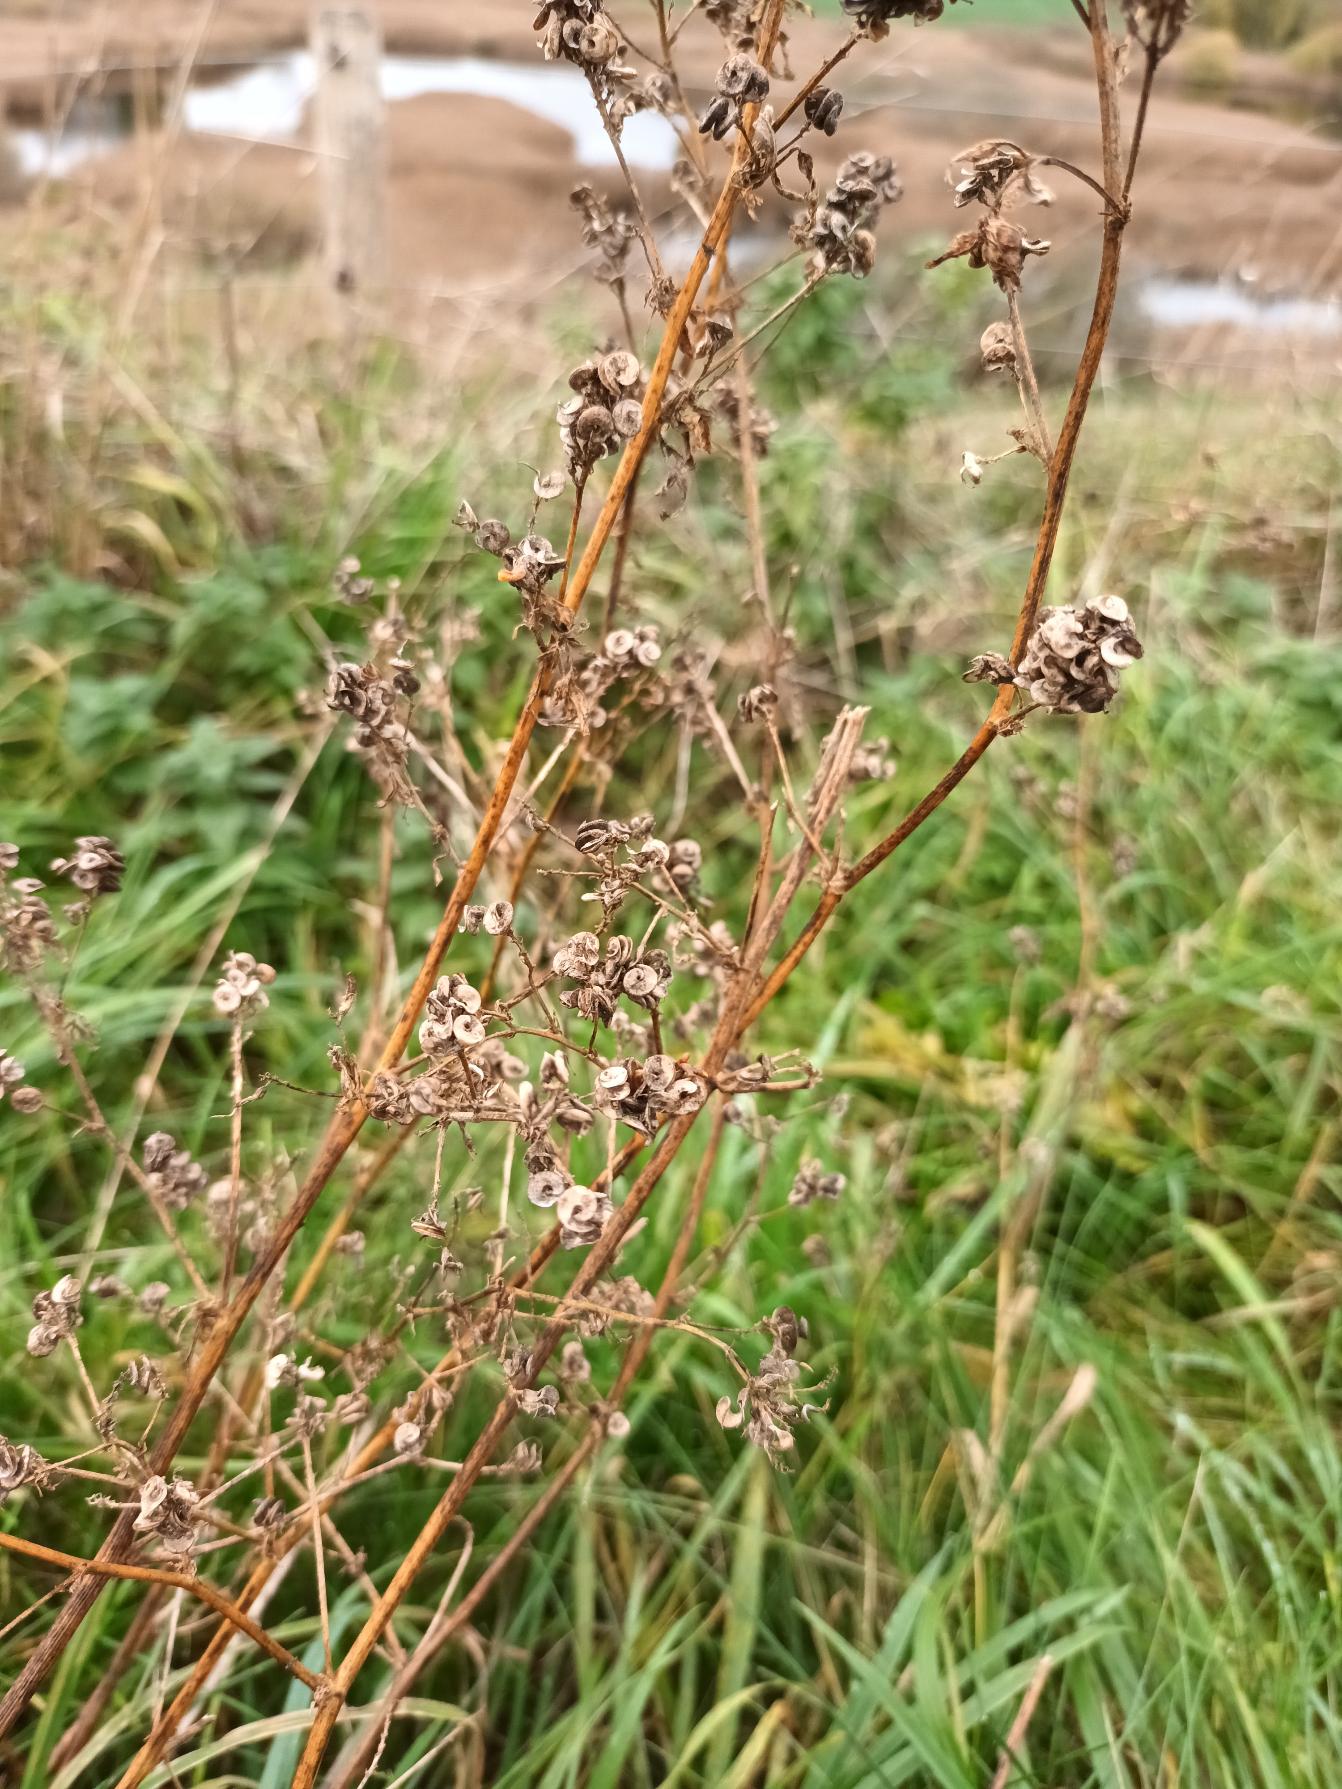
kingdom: Plantae
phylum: Tracheophyta
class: Magnoliopsida
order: Fabales
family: Fabaceae
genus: Medicago
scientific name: Medicago sativa
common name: Lucerne
